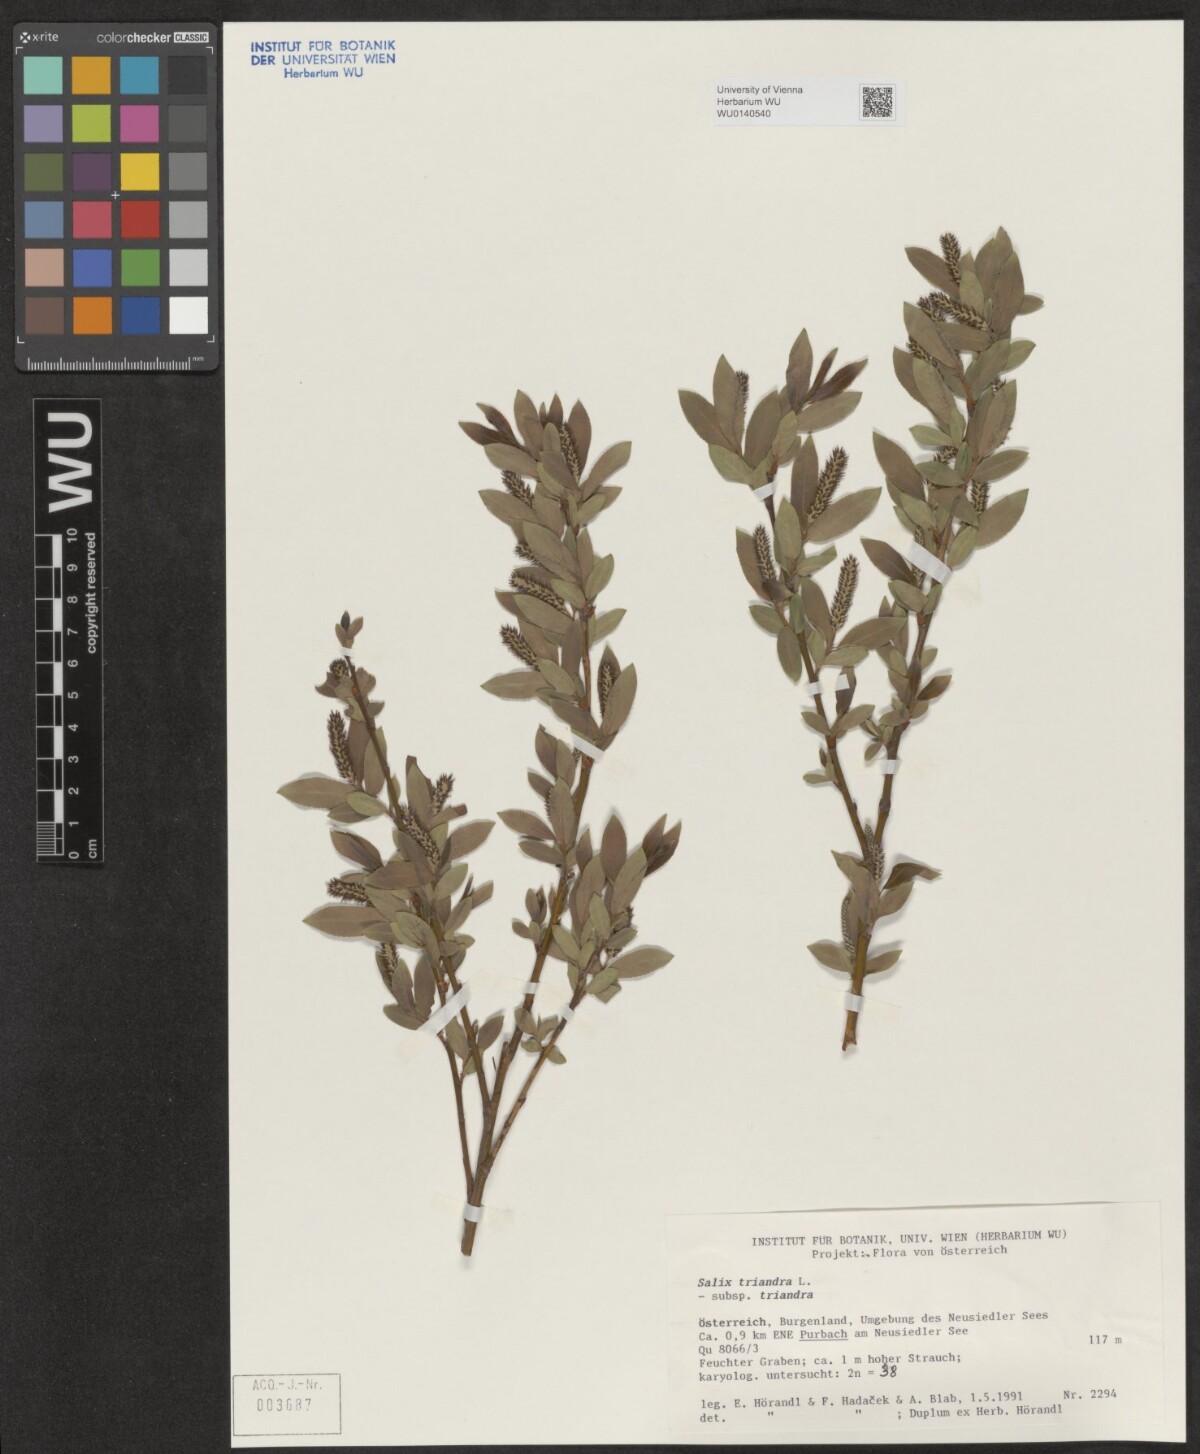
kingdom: Plantae
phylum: Tracheophyta
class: Magnoliopsida
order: Malpighiales
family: Salicaceae
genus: Salix
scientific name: Salix triandra
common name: Almond willow
